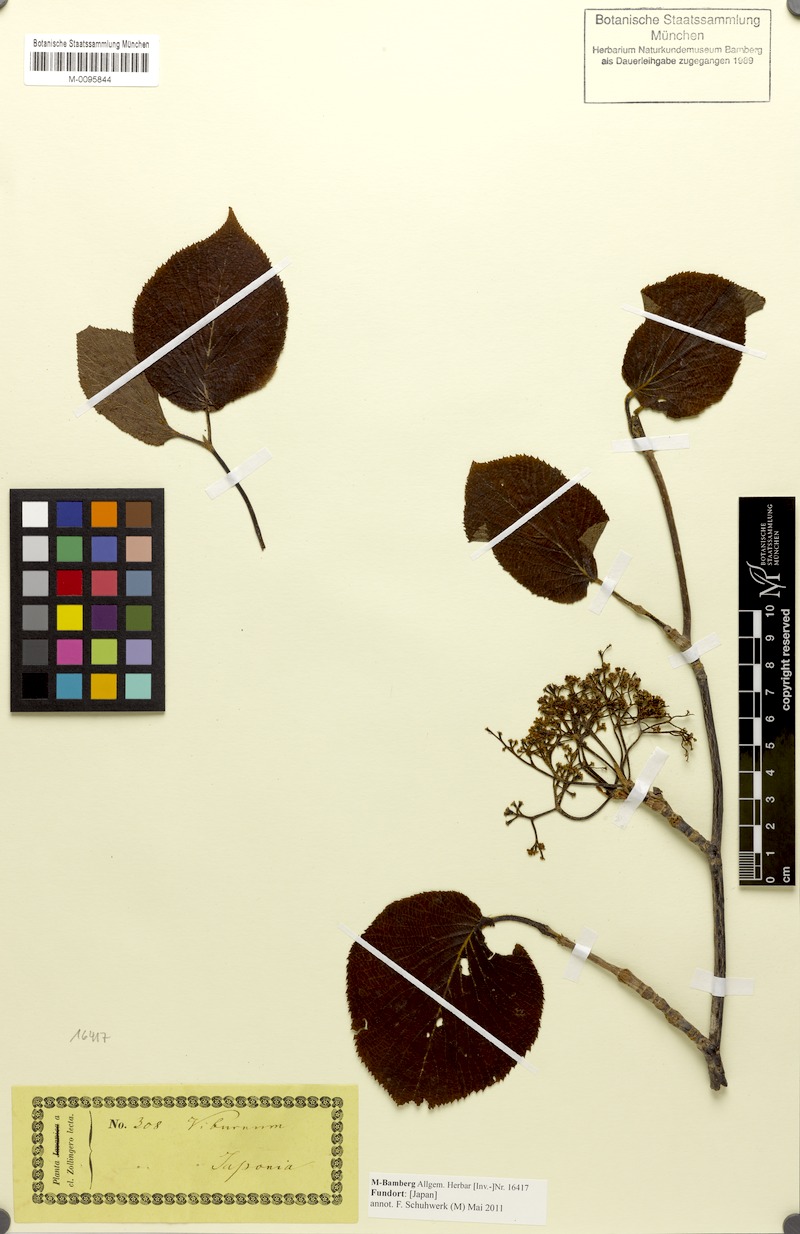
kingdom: Plantae
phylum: Tracheophyta
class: Magnoliopsida
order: Dipsacales
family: Viburnaceae
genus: Viburnum
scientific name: Viburnum
